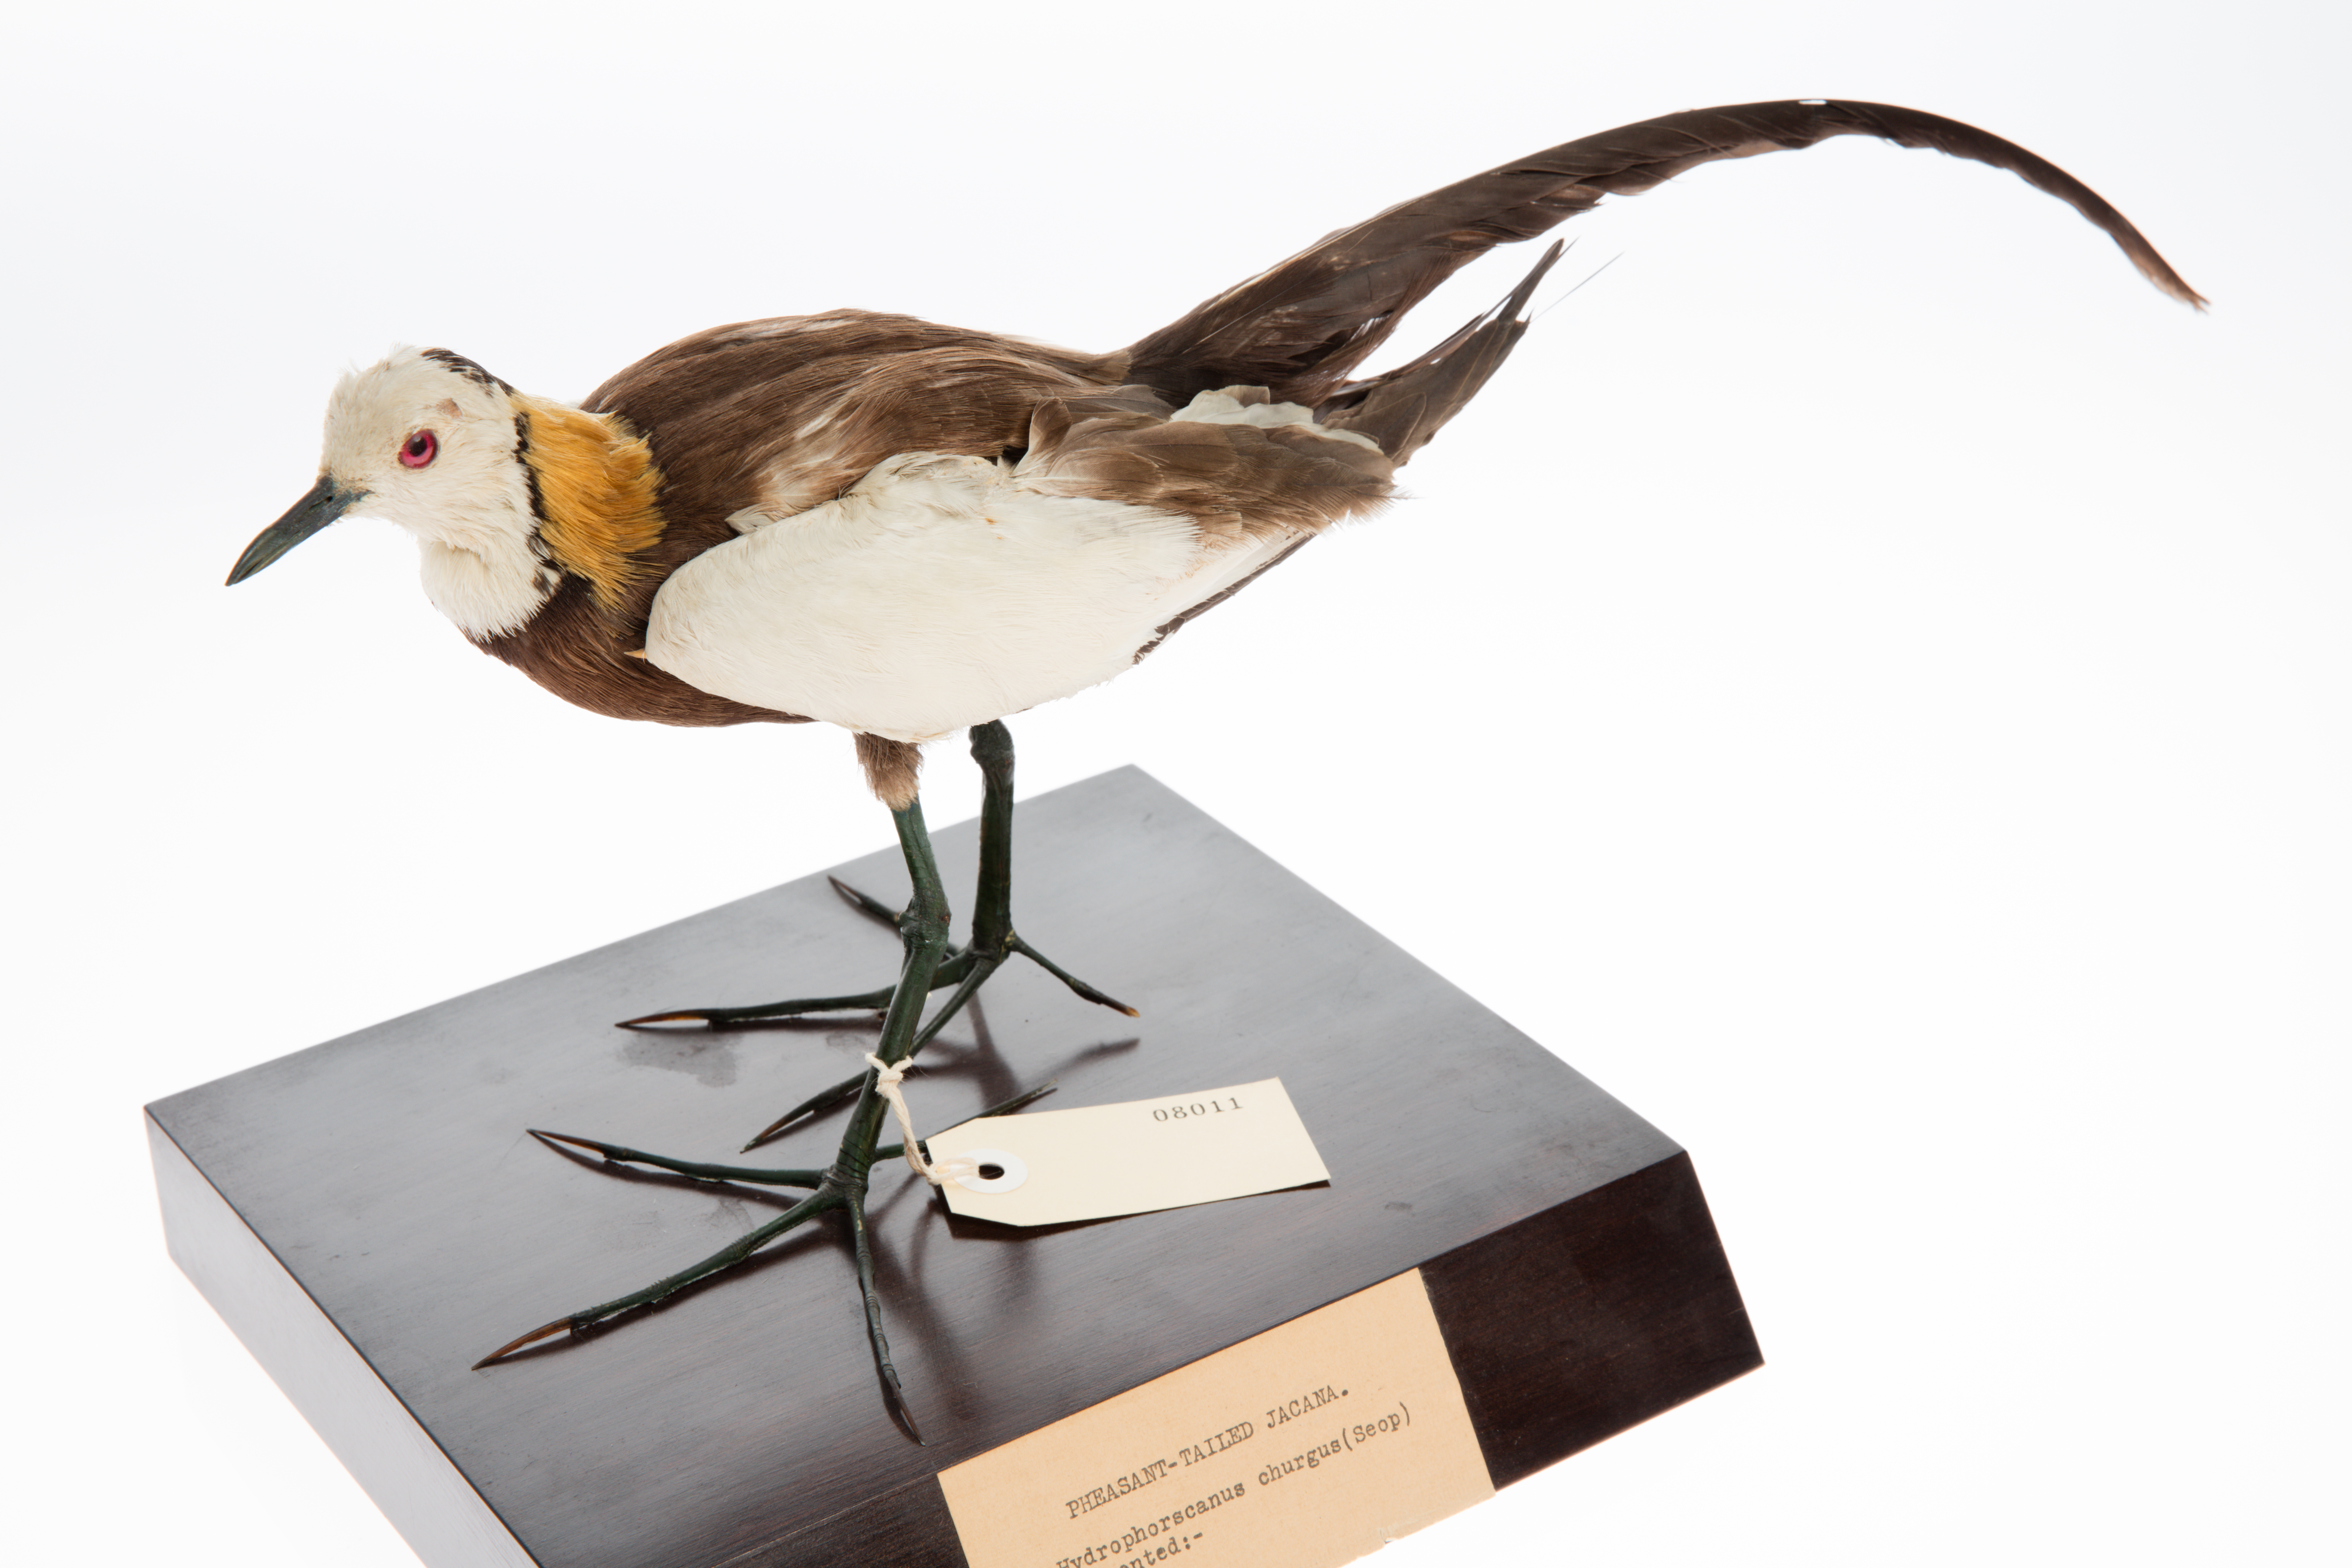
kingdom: Animalia
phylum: Chordata
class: Aves
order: Charadriiformes
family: Jacanidae
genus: Hydrophasianus
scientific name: Hydrophasianus chirurgus
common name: Pheasant-tailed jacana
